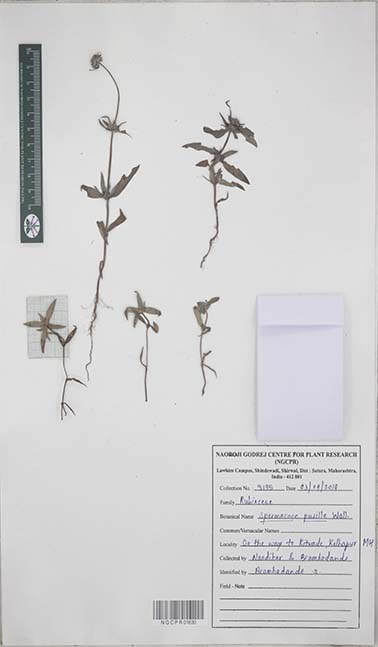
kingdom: Plantae
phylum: Tracheophyta
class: Magnoliopsida
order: Gentianales
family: Rubiaceae
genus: Spermacoce
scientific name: Spermacoce pusilla
